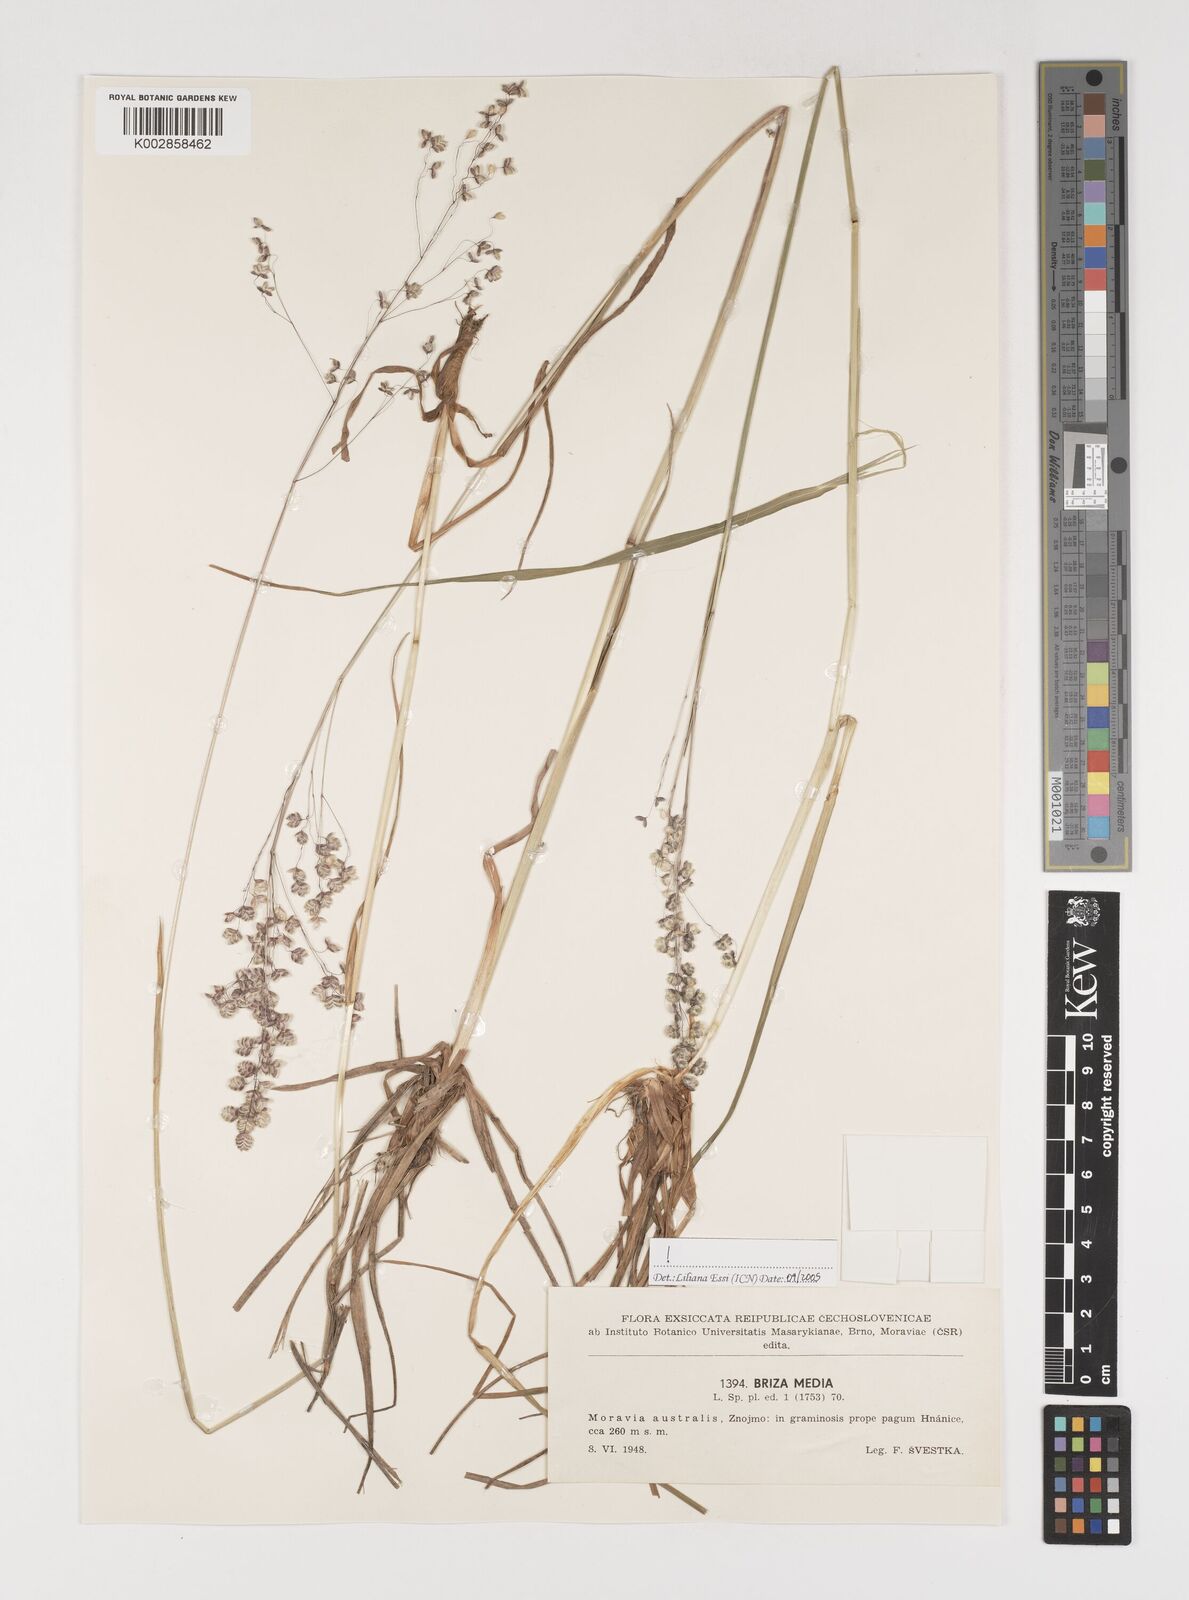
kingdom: Plantae
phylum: Tracheophyta
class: Liliopsida
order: Poales
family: Poaceae
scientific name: Poaceae
